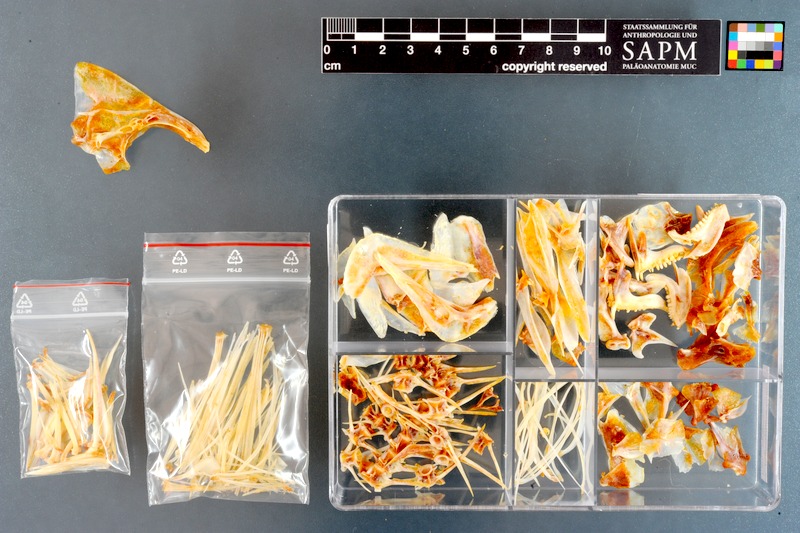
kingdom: Animalia
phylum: Chordata
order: Perciformes
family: Sparidae
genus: Pterogymnus
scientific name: Pterogymnus laniarius
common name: Panga
